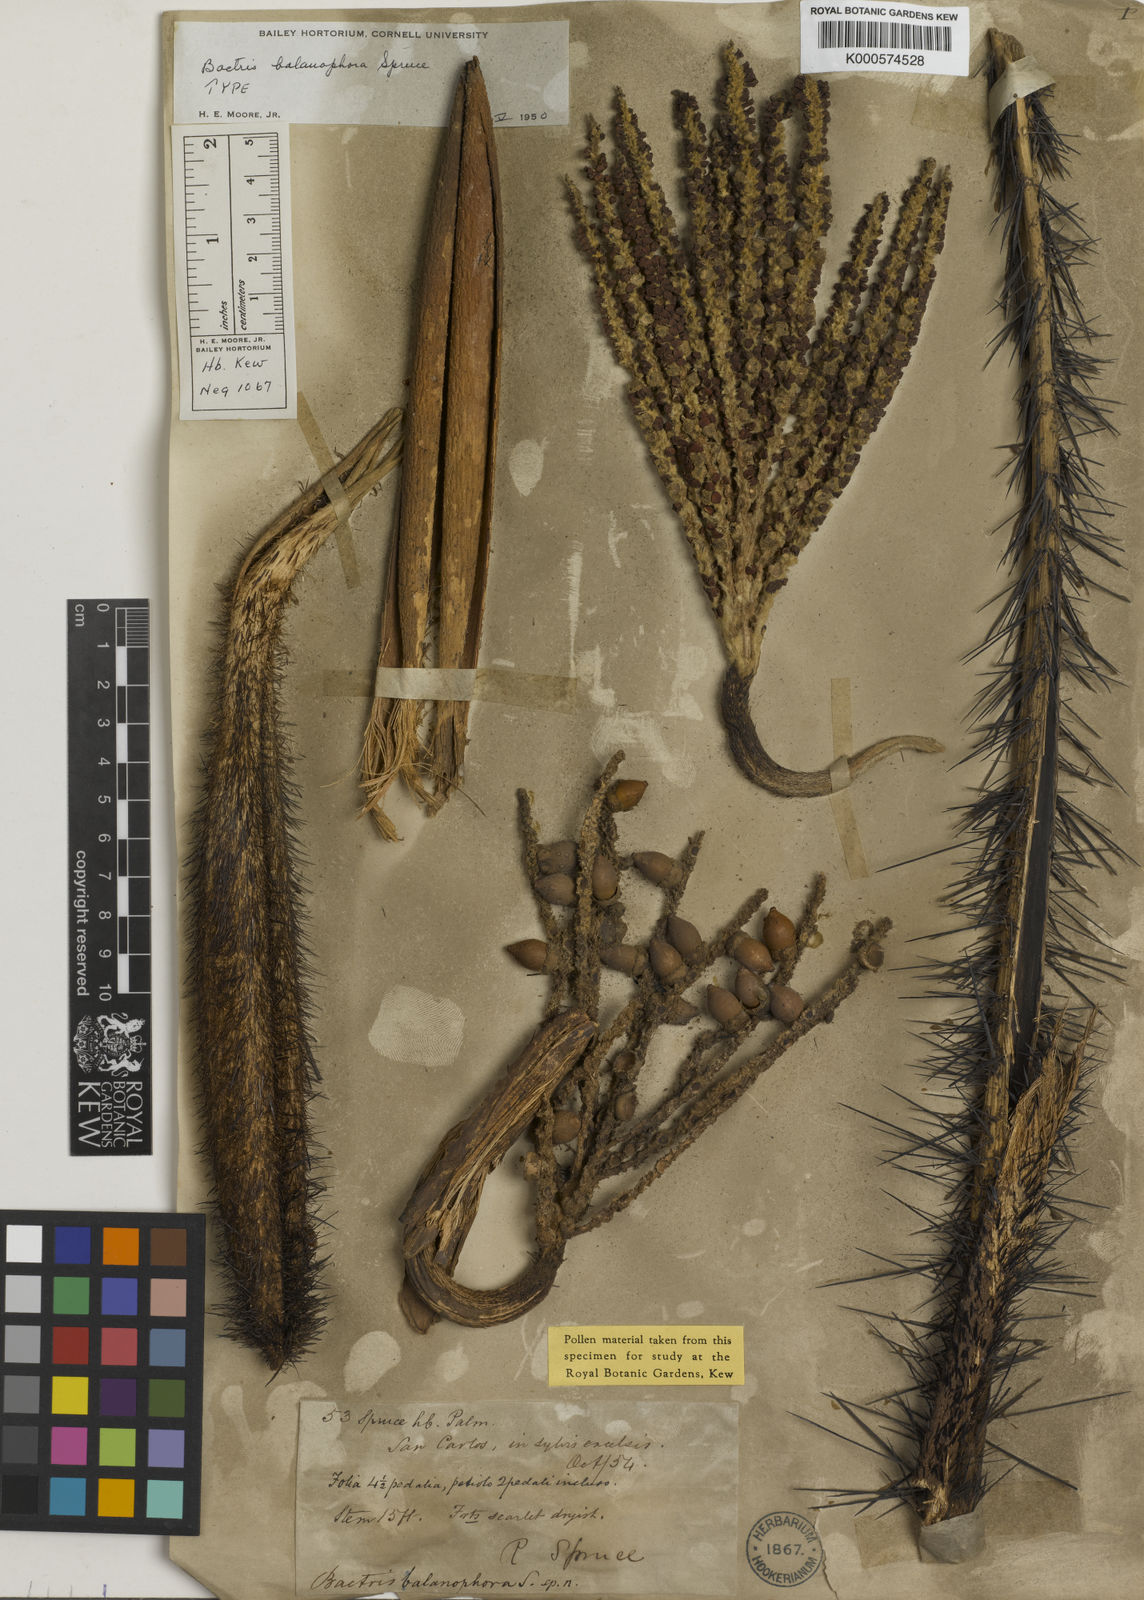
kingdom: Plantae
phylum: Tracheophyta
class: Liliopsida
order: Arecales
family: Arecaceae
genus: Bactris
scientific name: Bactris balanophora
